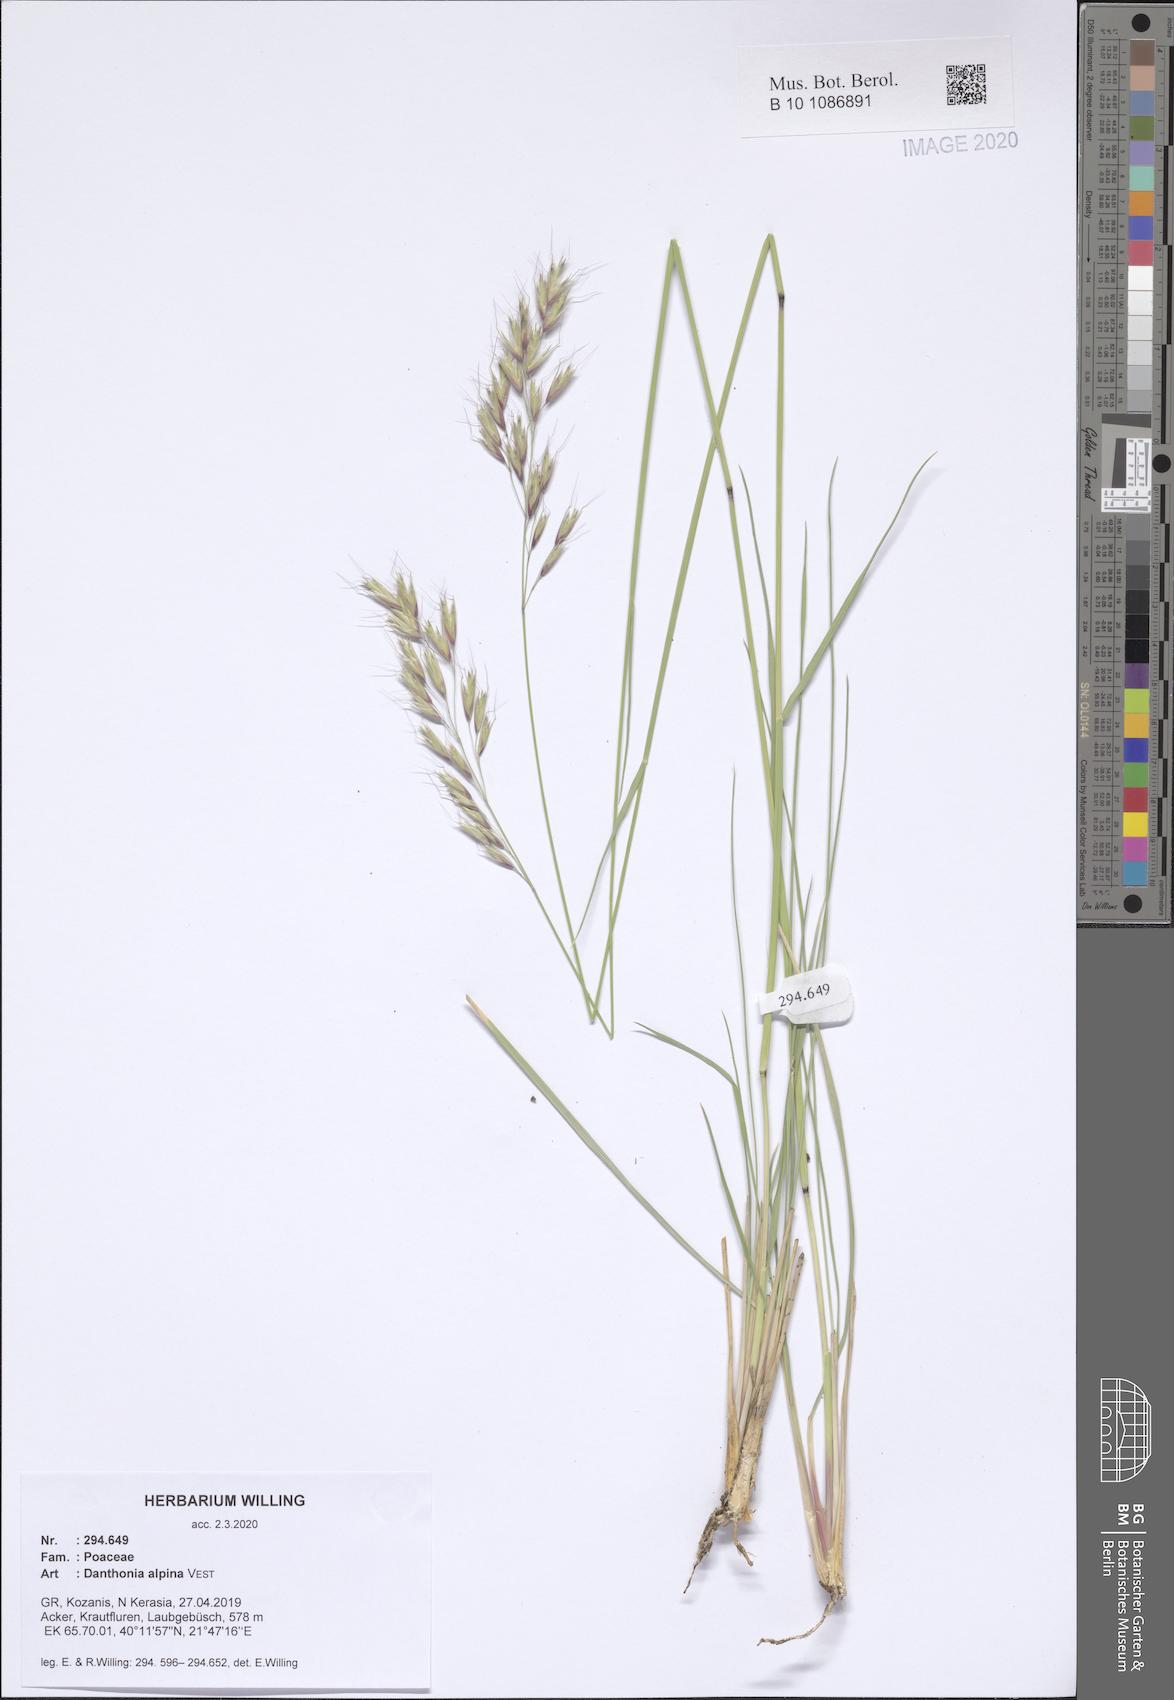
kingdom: Plantae
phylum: Tracheophyta
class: Liliopsida
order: Poales
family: Poaceae
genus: Danthonia
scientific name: Danthonia alpina
